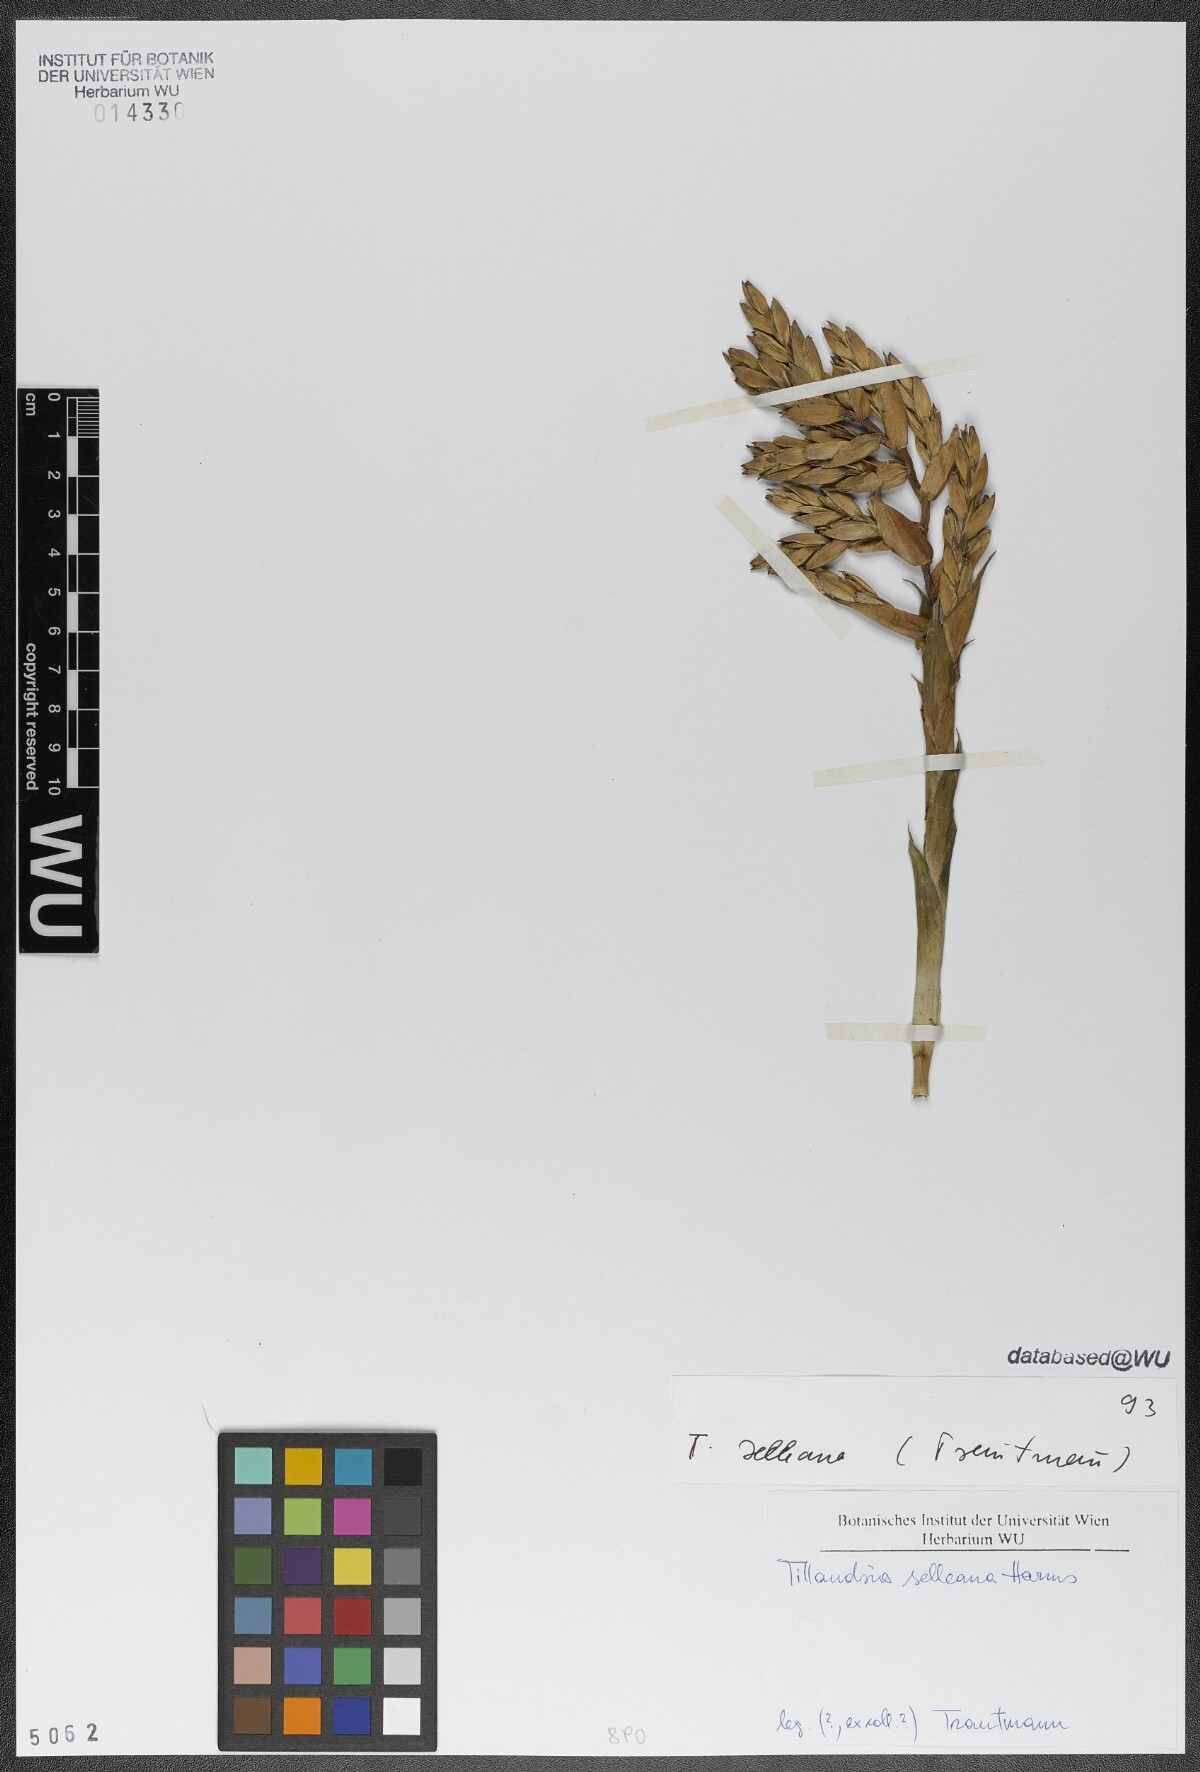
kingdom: Plantae
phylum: Tracheophyta
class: Liliopsida
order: Poales
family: Bromeliaceae
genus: Tillandsia
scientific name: Tillandsia selleana
